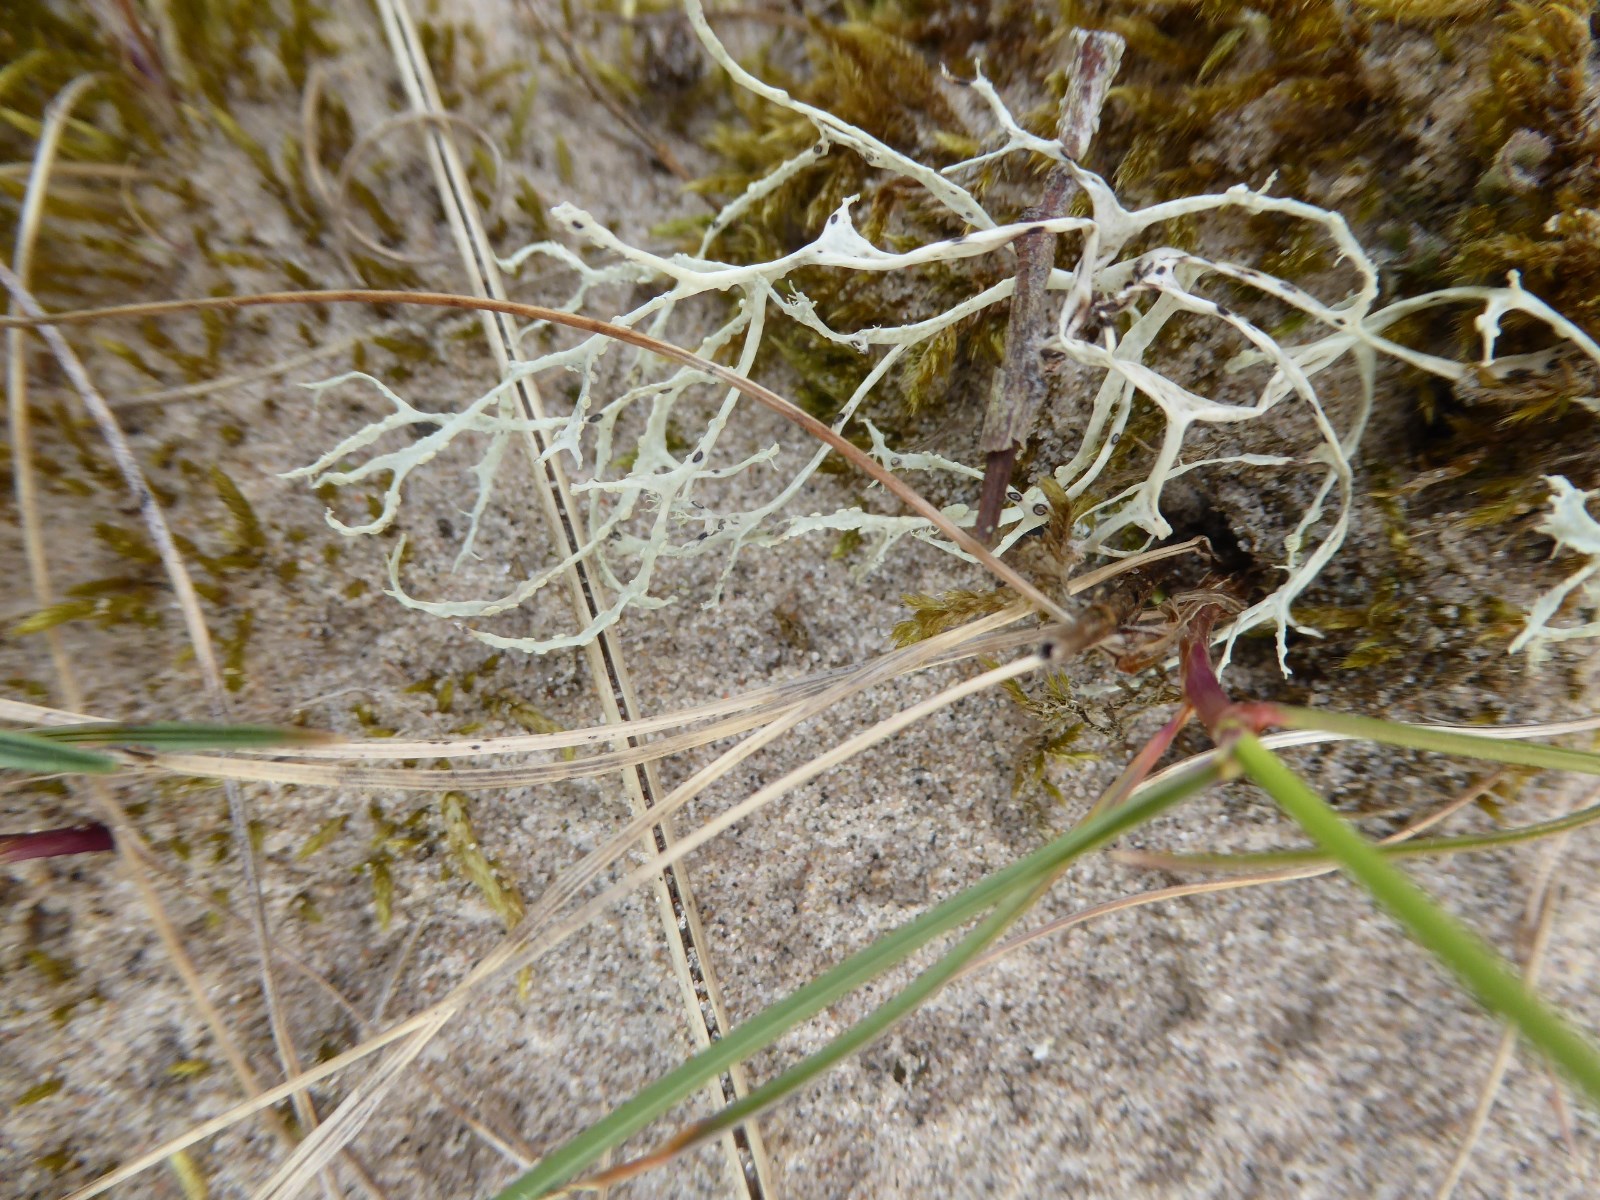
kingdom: Fungi
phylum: Ascomycota
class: Lecanoromycetes
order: Lecanorales
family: Ramalinaceae
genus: Ramalina
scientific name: Ramalina farinacea
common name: melet grenlav
